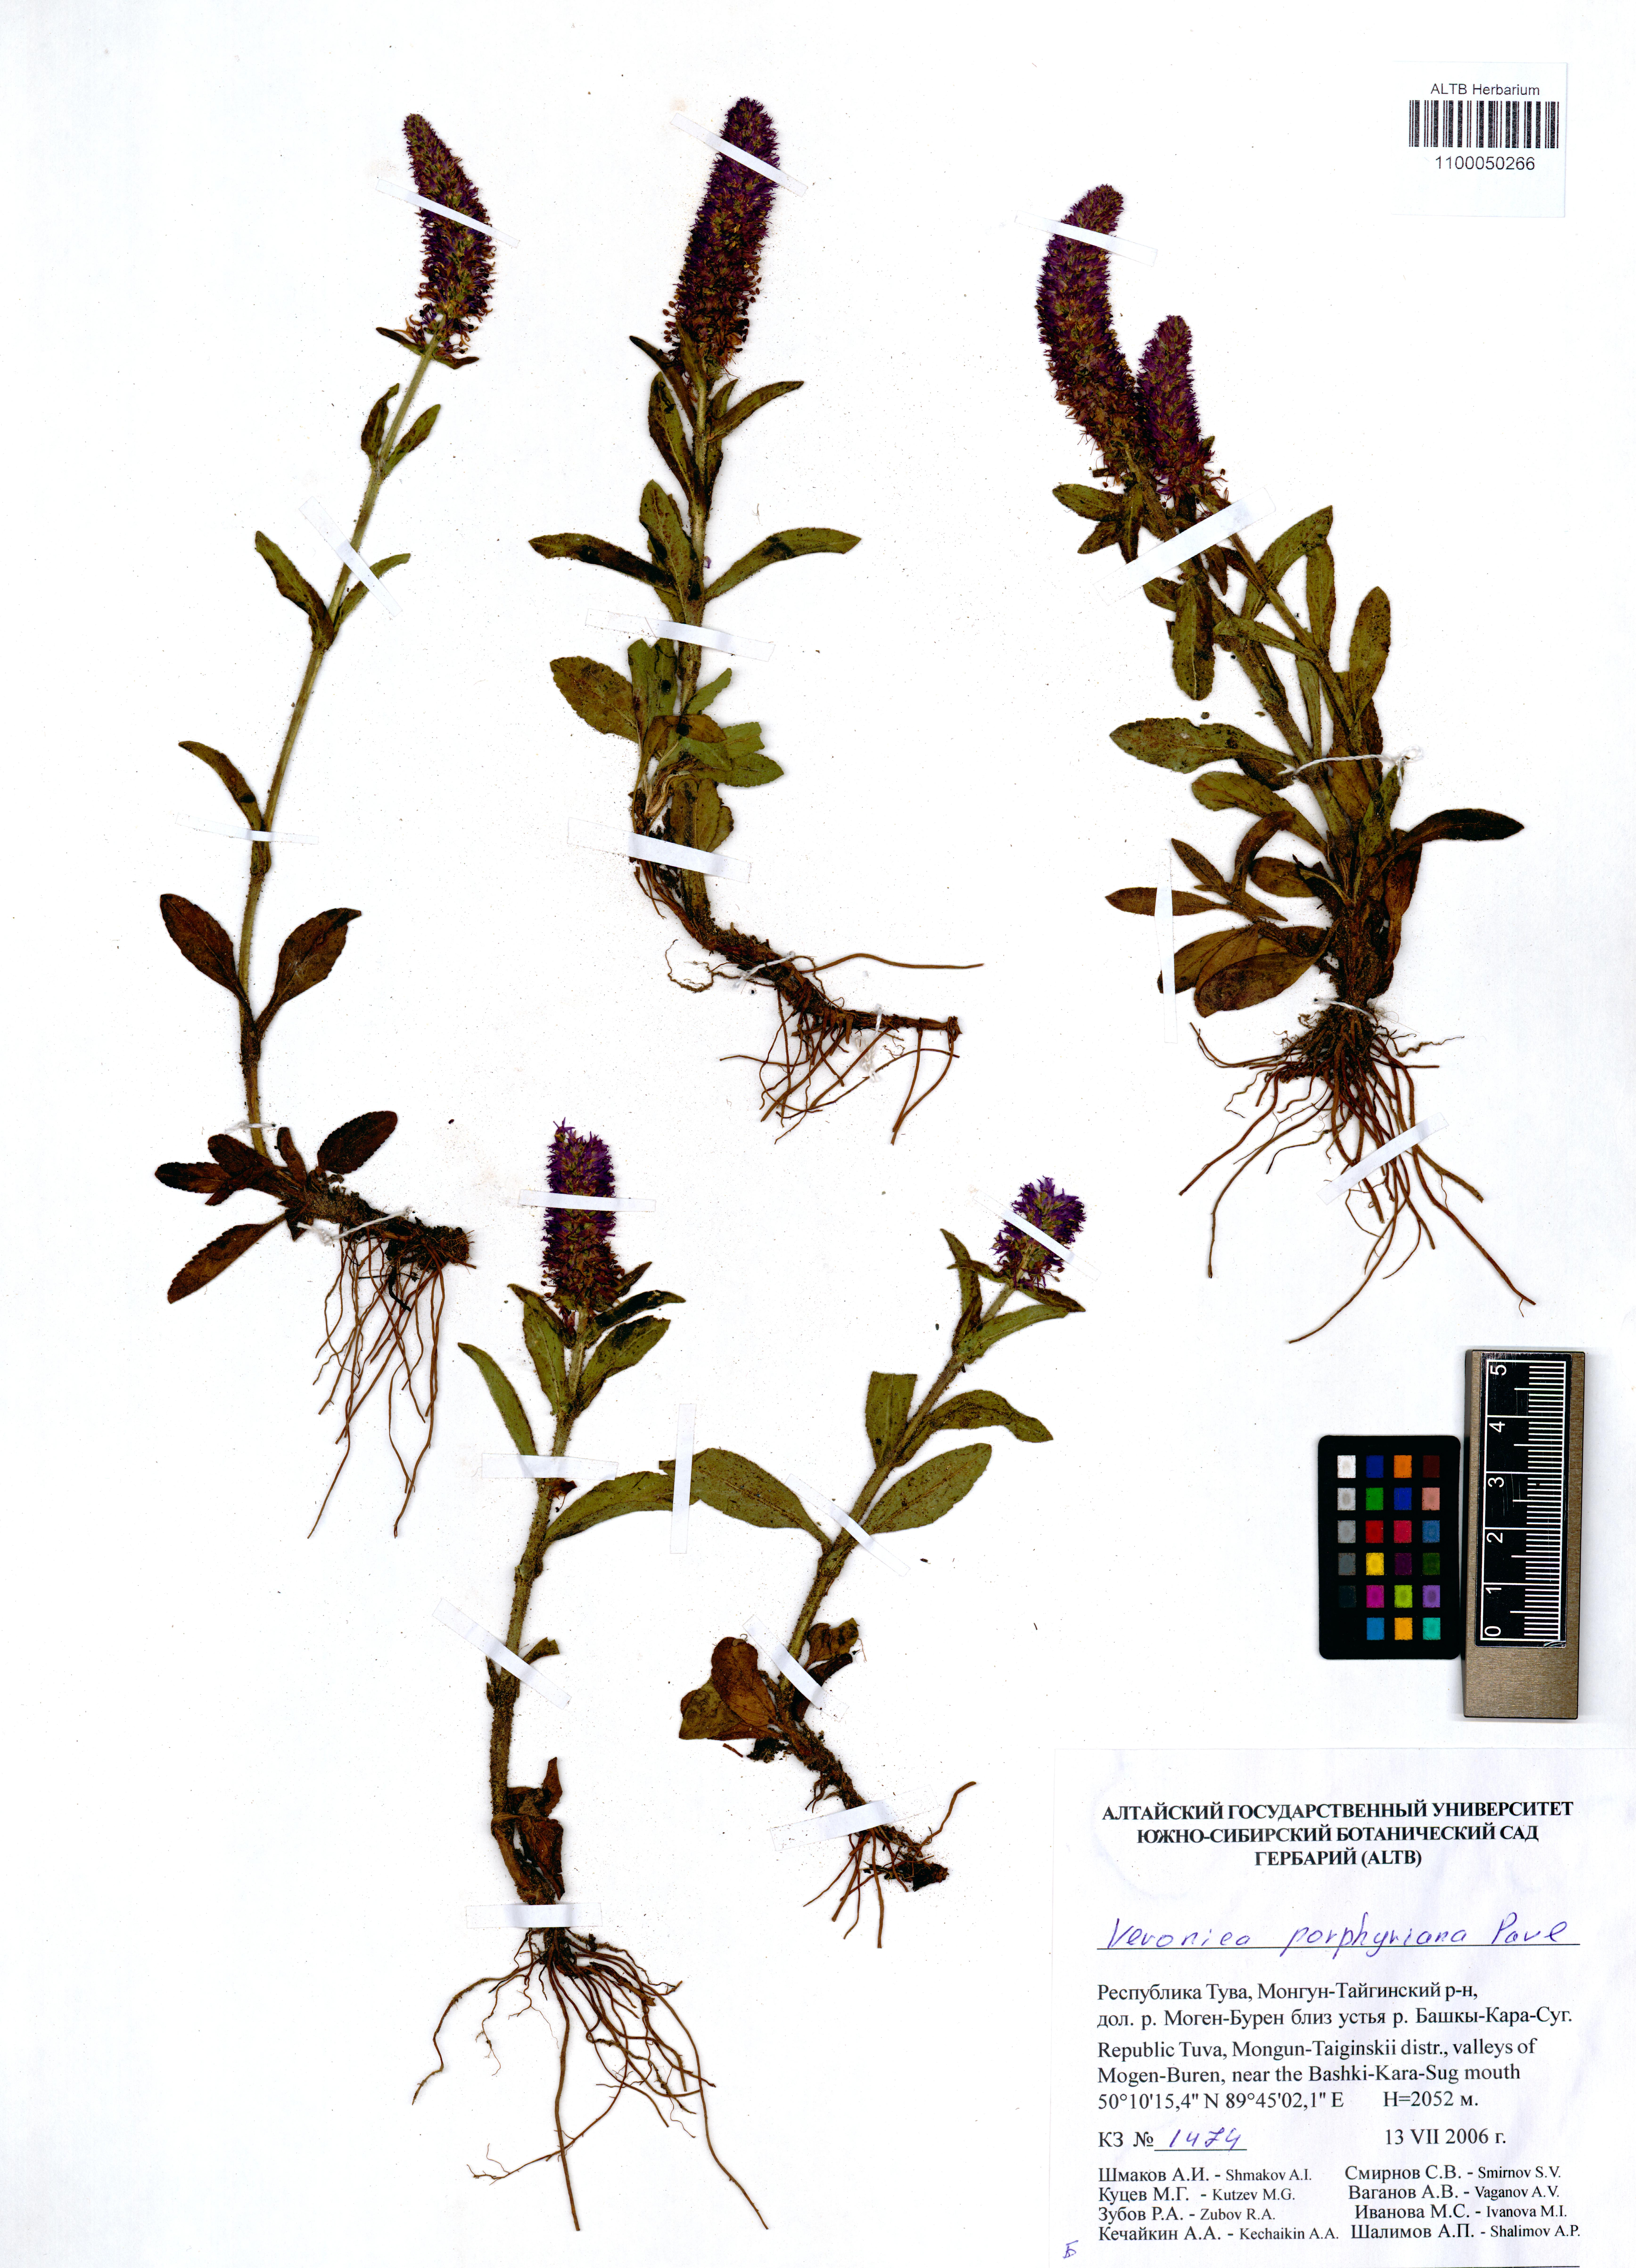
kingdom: Plantae
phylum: Tracheophyta
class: Magnoliopsida
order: Lamiales
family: Plantaginaceae
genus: Veronica
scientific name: Veronica porphyriana
